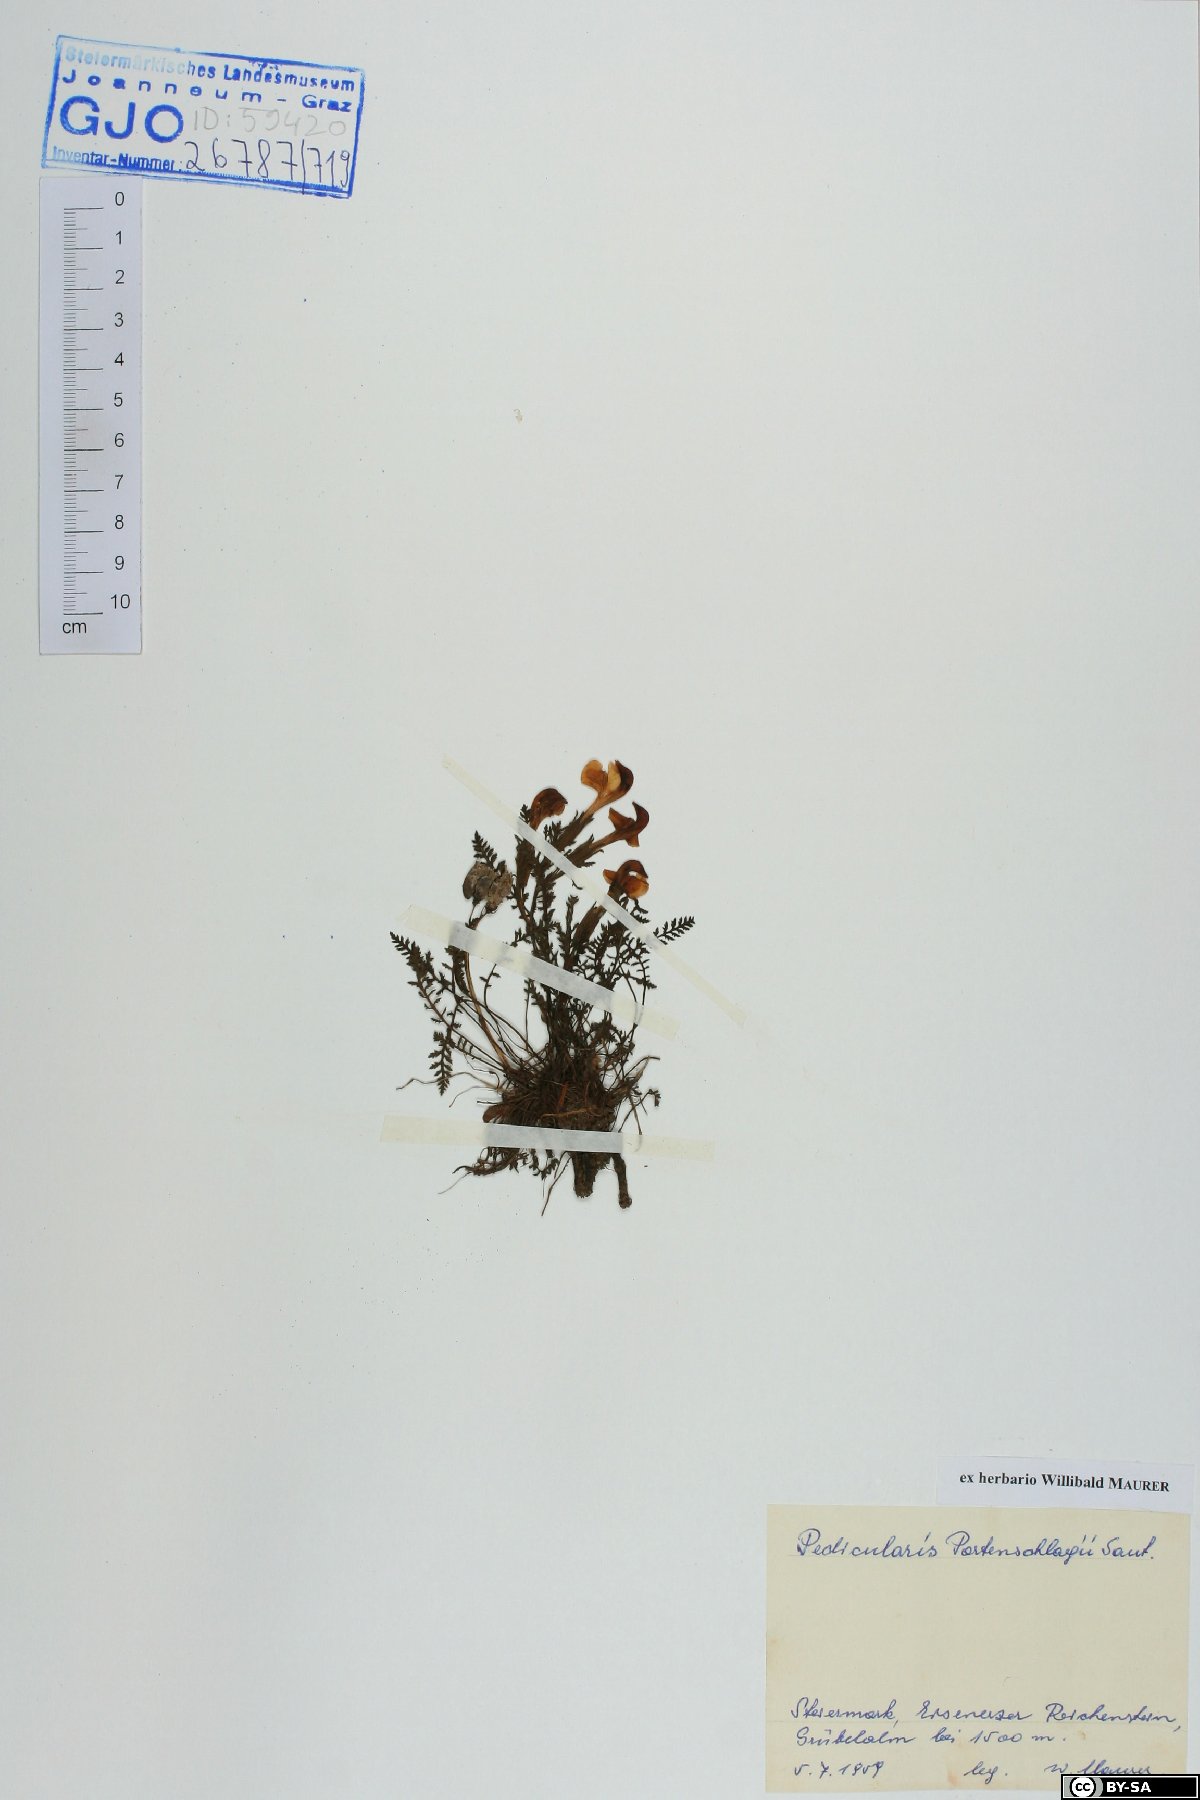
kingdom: Plantae
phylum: Tracheophyta
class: Magnoliopsida
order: Lamiales
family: Orobanchaceae
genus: Pedicularis
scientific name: Pedicularis portenschlagii
